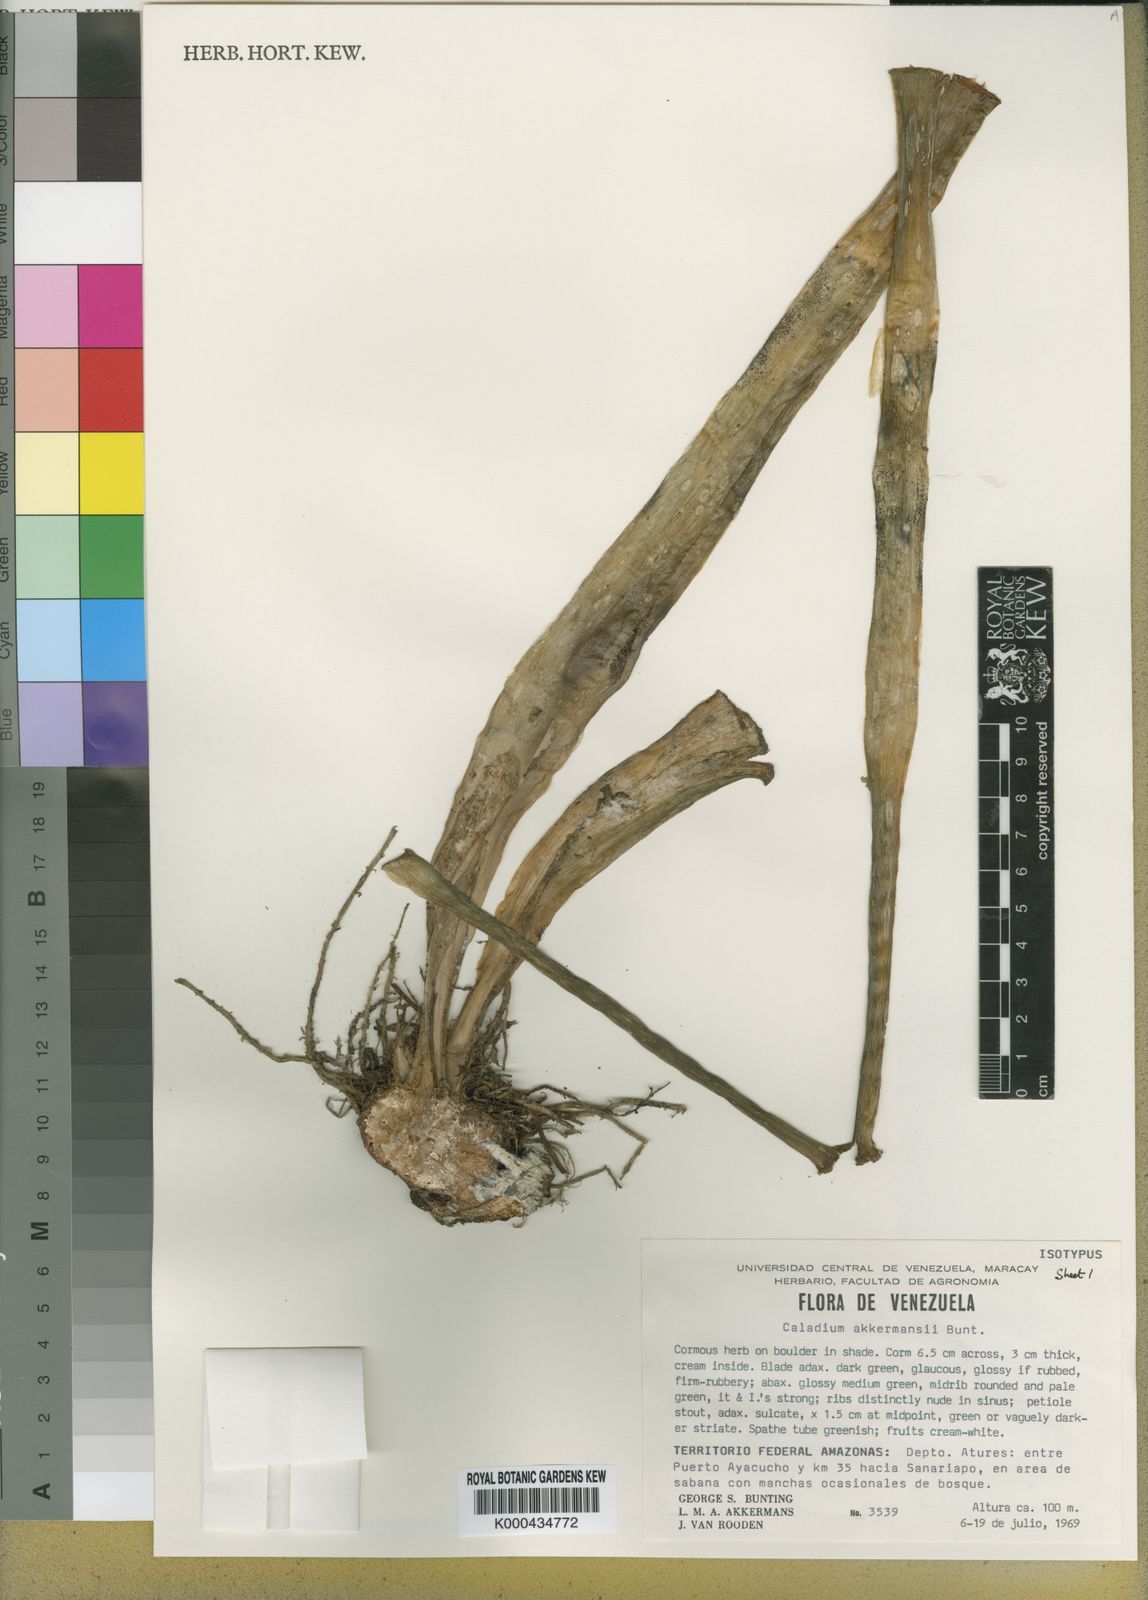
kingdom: Plantae
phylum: Tracheophyta
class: Liliopsida
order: Alismatales
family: Araceae
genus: Xanthosoma
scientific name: Xanthosoma akkermansii
